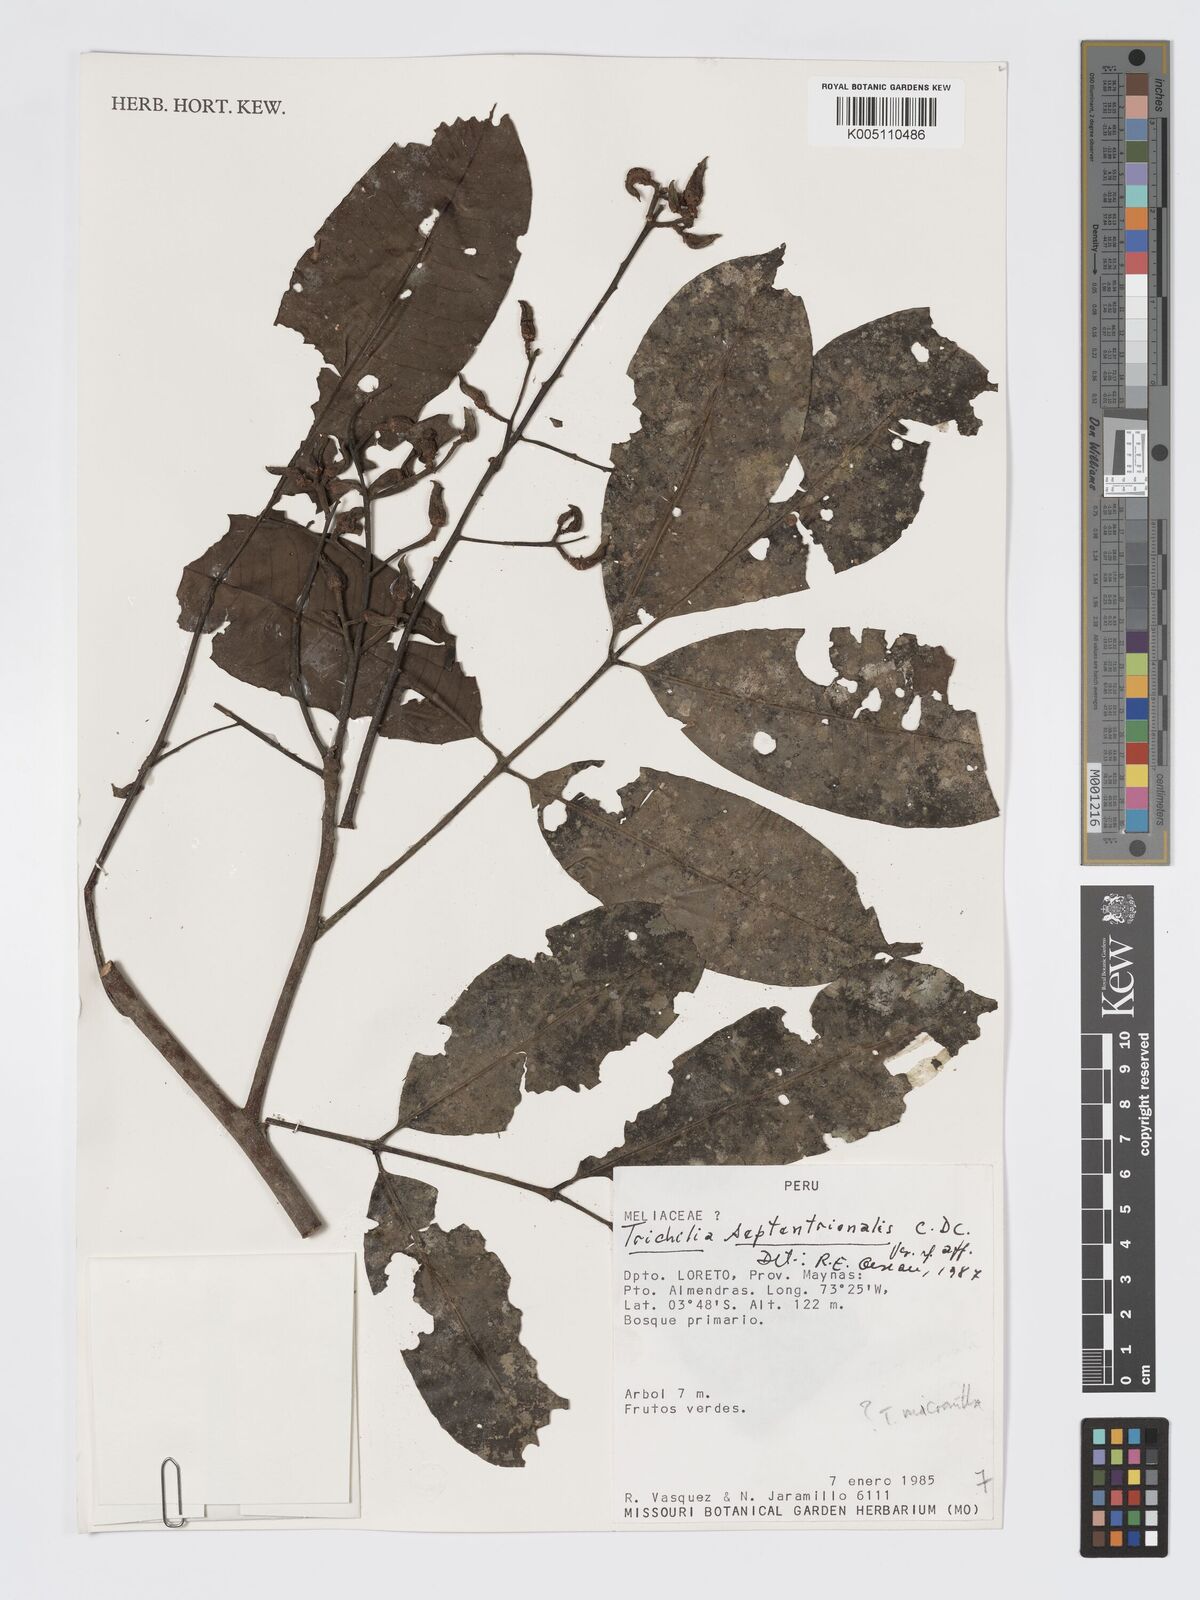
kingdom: Plantae
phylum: Tracheophyta
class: Magnoliopsida
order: Sapindales
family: Meliaceae
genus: Trichilia
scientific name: Trichilia
